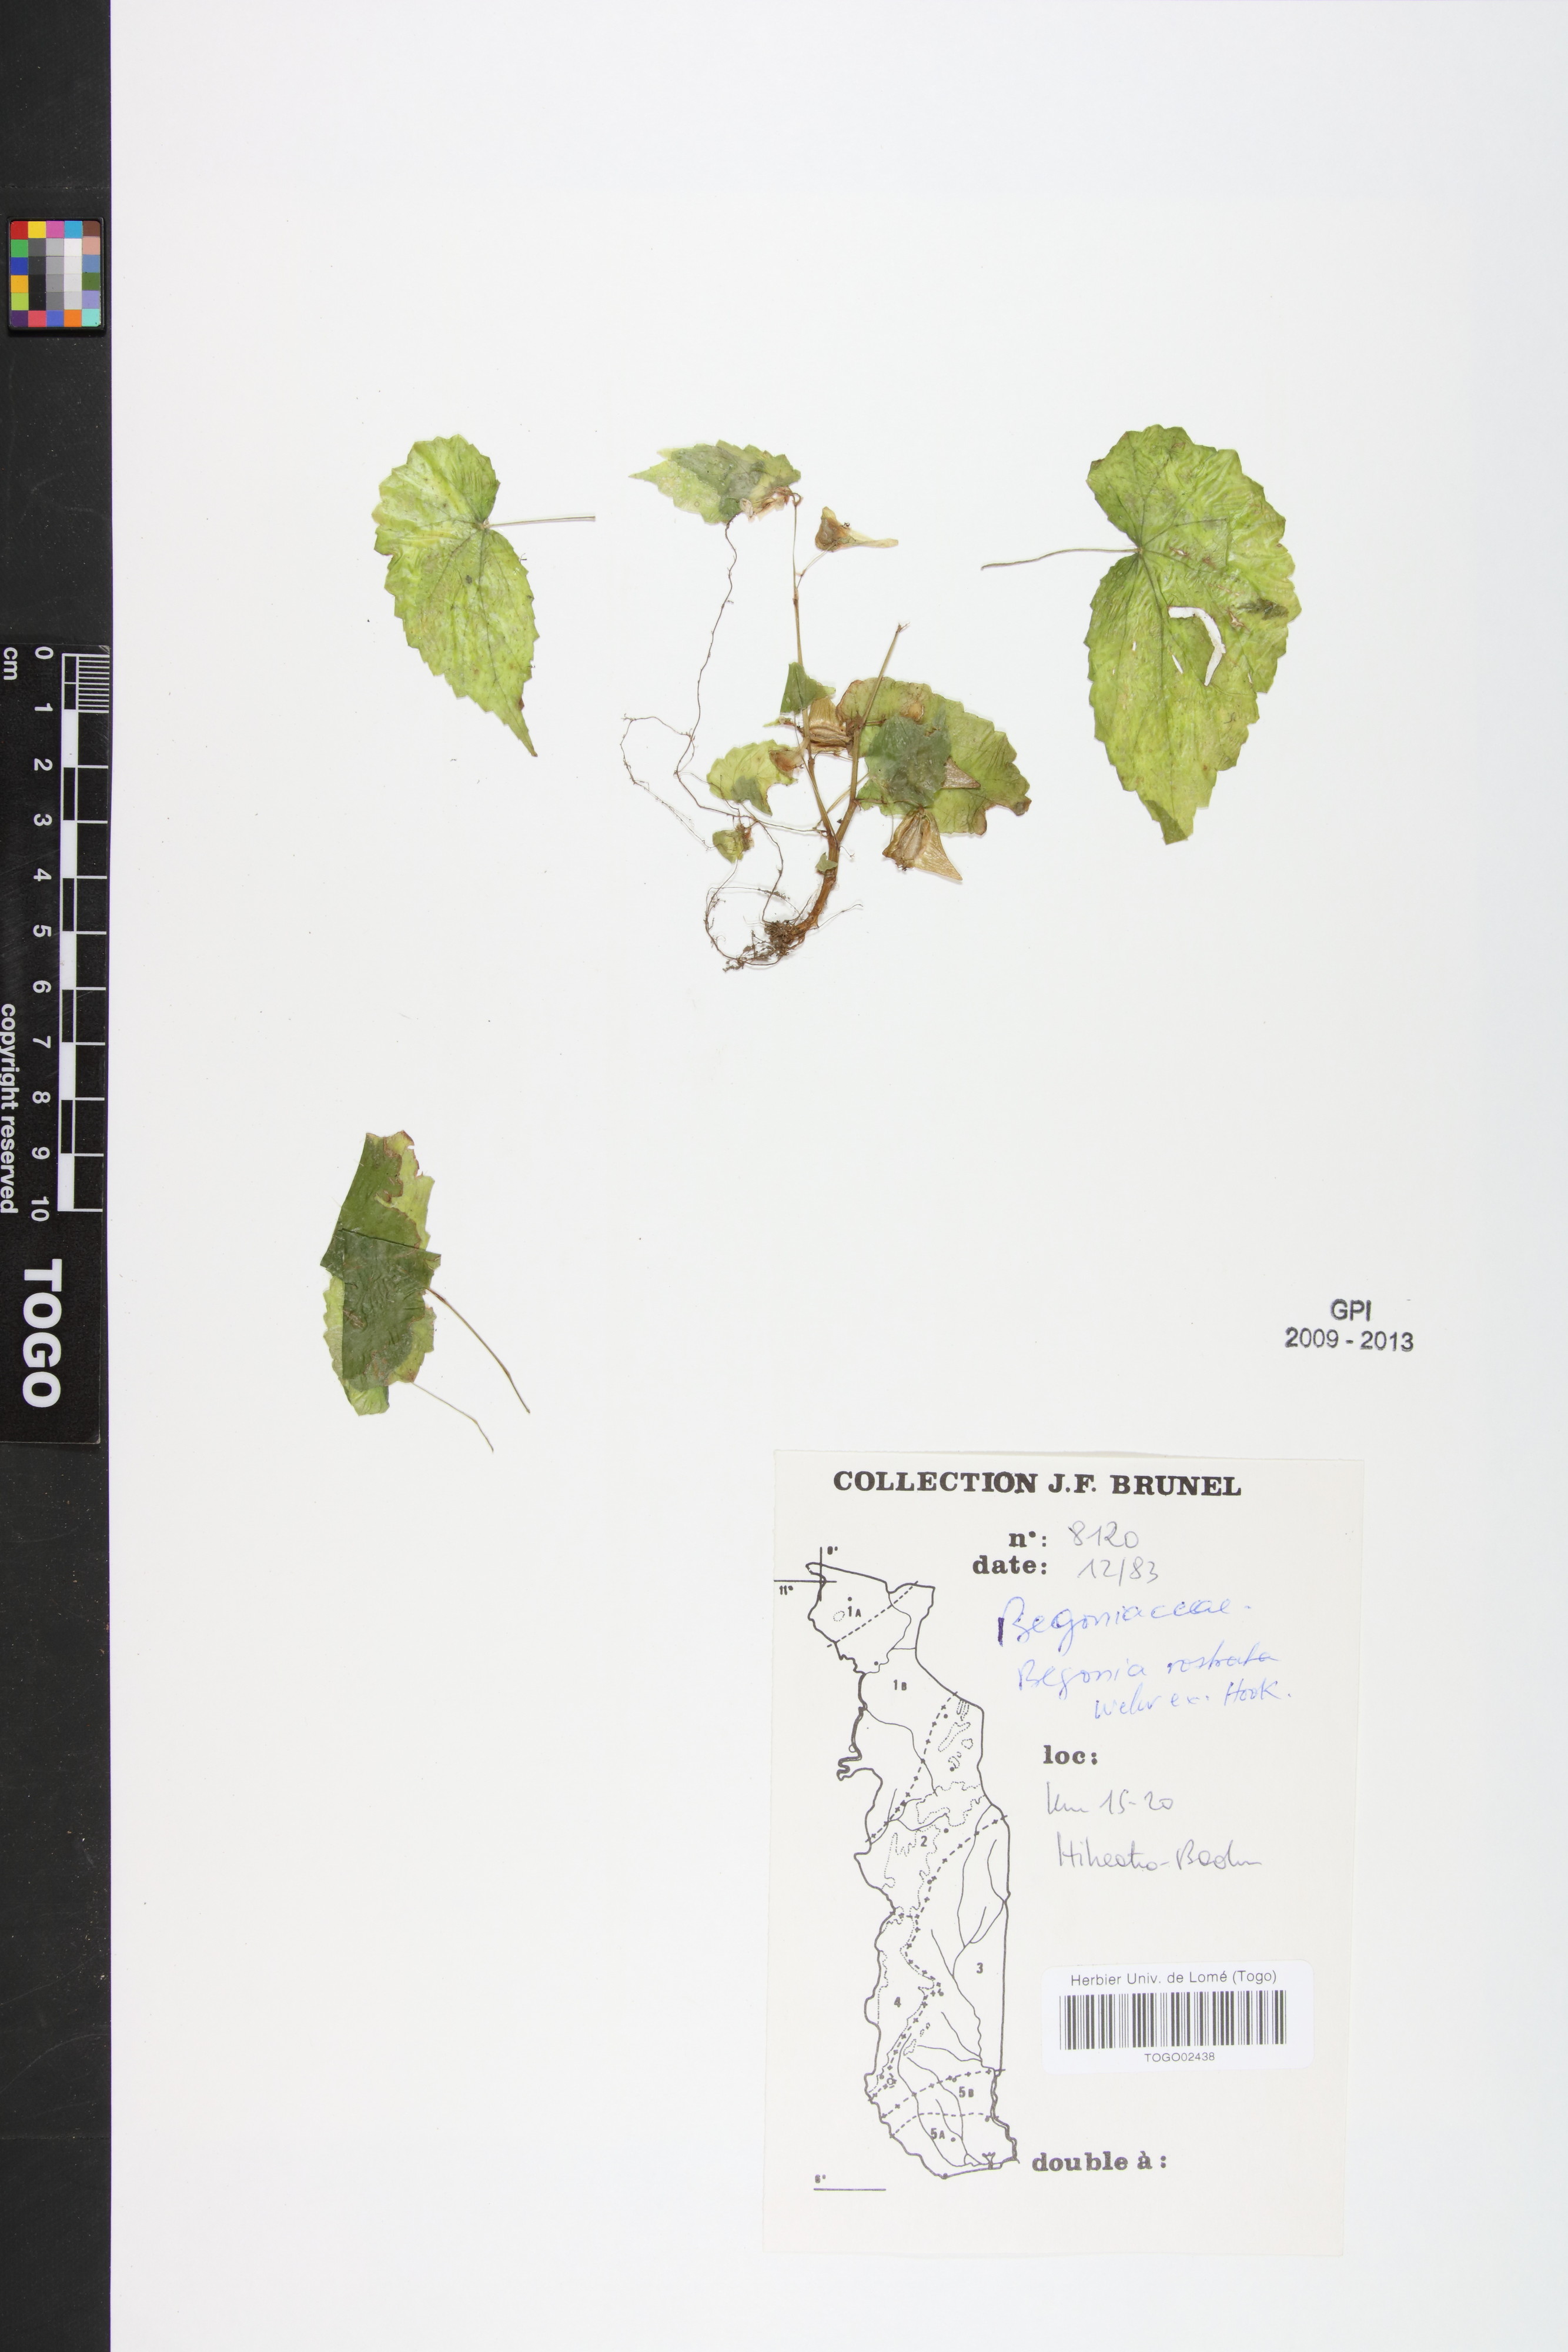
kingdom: Plantae
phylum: Tracheophyta
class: Magnoliopsida
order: Cucurbitales
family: Begoniaceae
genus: Begonia
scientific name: Begonia rostrata
